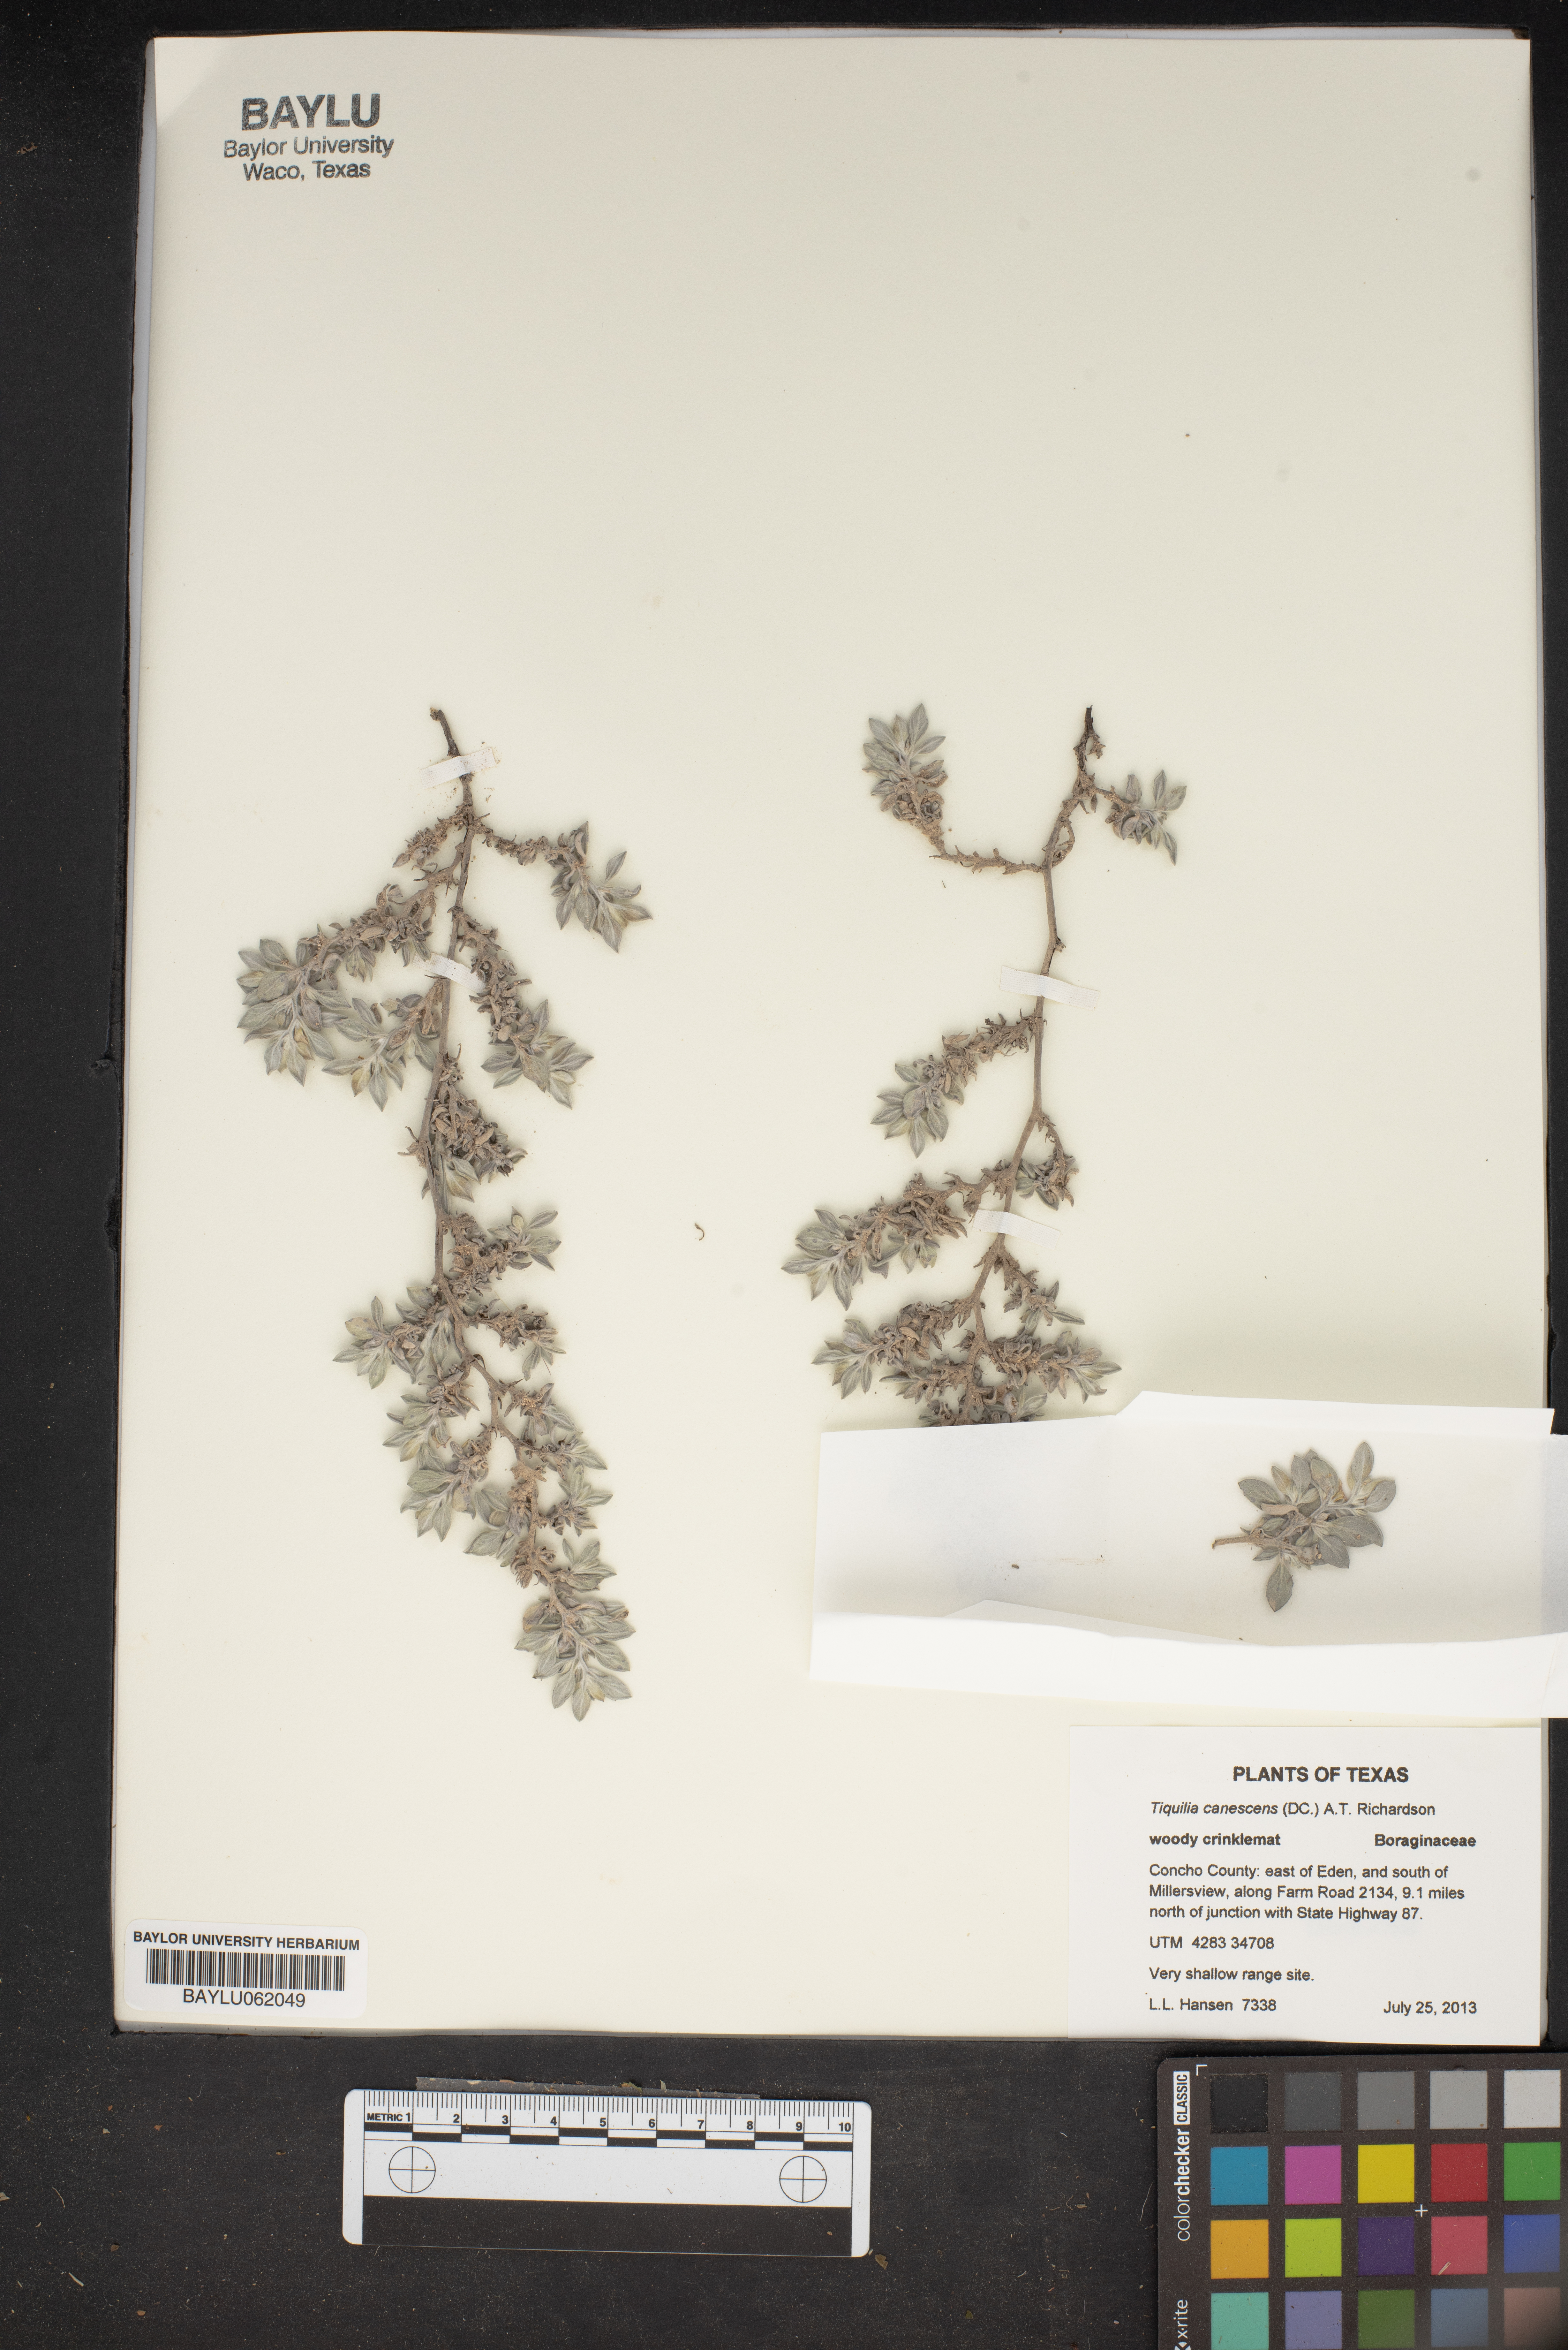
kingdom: Plantae
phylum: Tracheophyta
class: Magnoliopsida
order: Boraginales
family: Ehretiaceae
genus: Tiquilia
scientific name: Tiquilia canescens
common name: Hairy tiquilia
